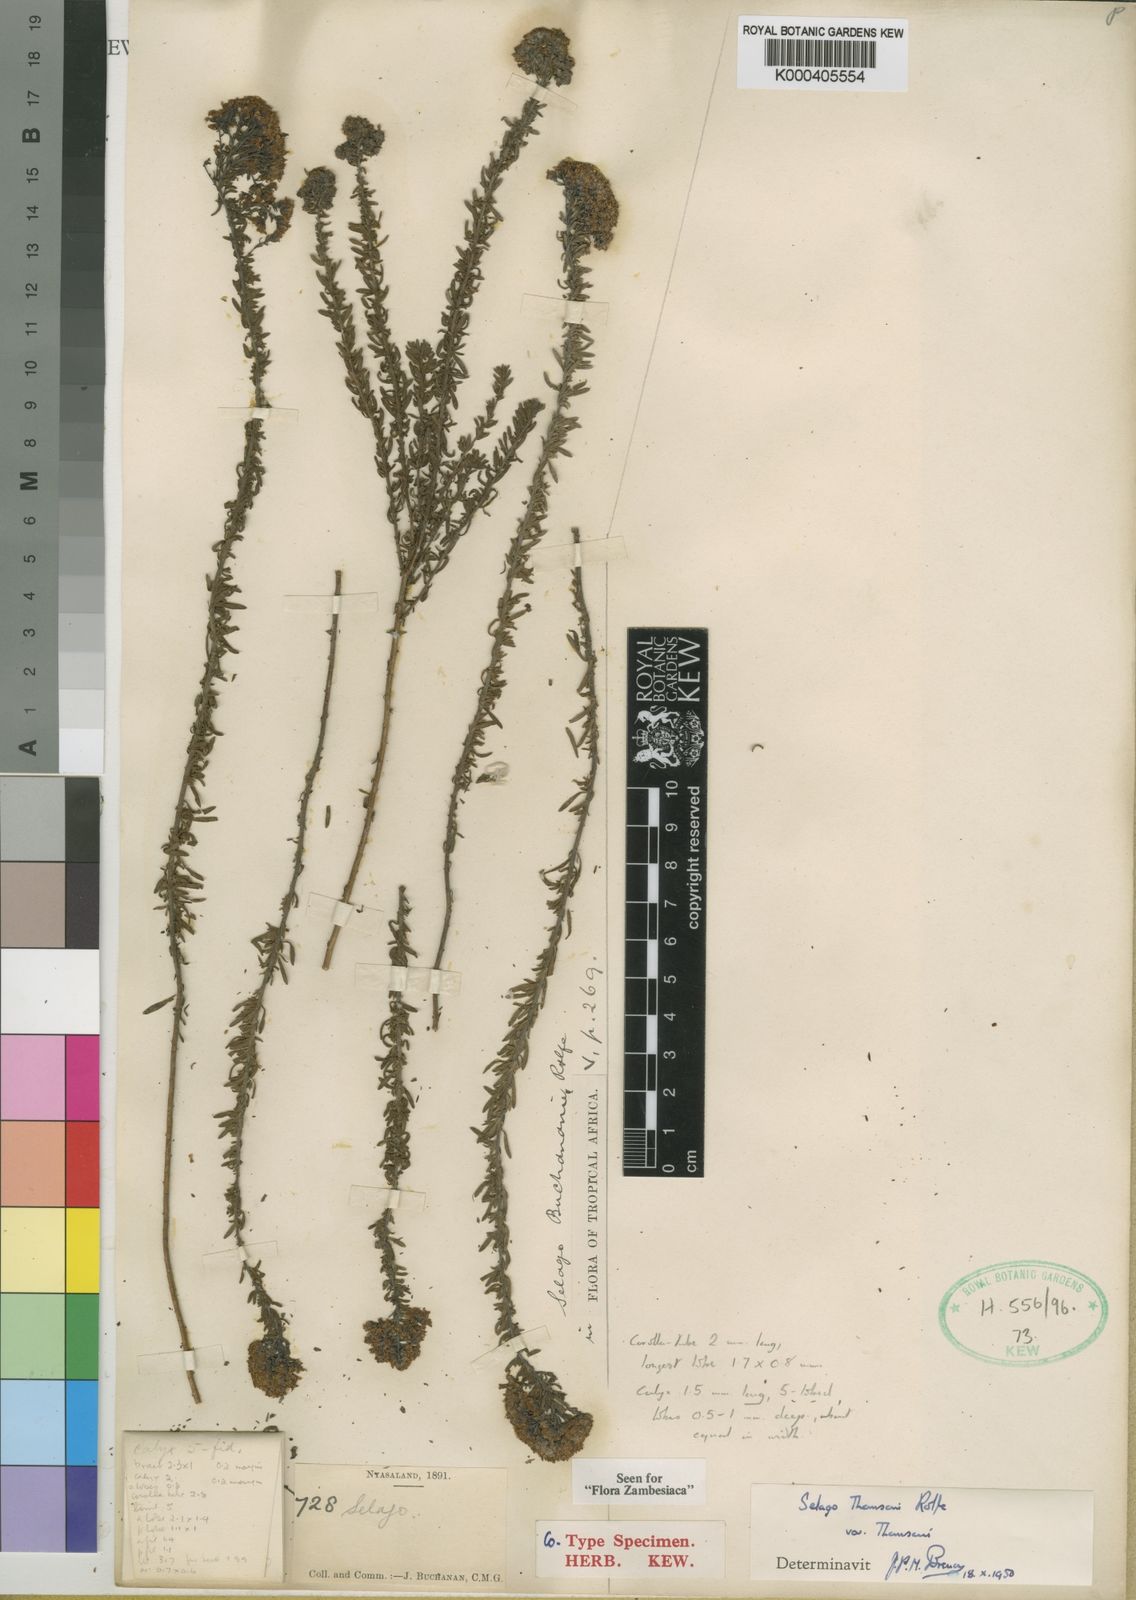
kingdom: Plantae
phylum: Tracheophyta
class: Magnoliopsida
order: Lamiales
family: Scrophulariaceae
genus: Selago
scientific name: Selago blantyrensis
